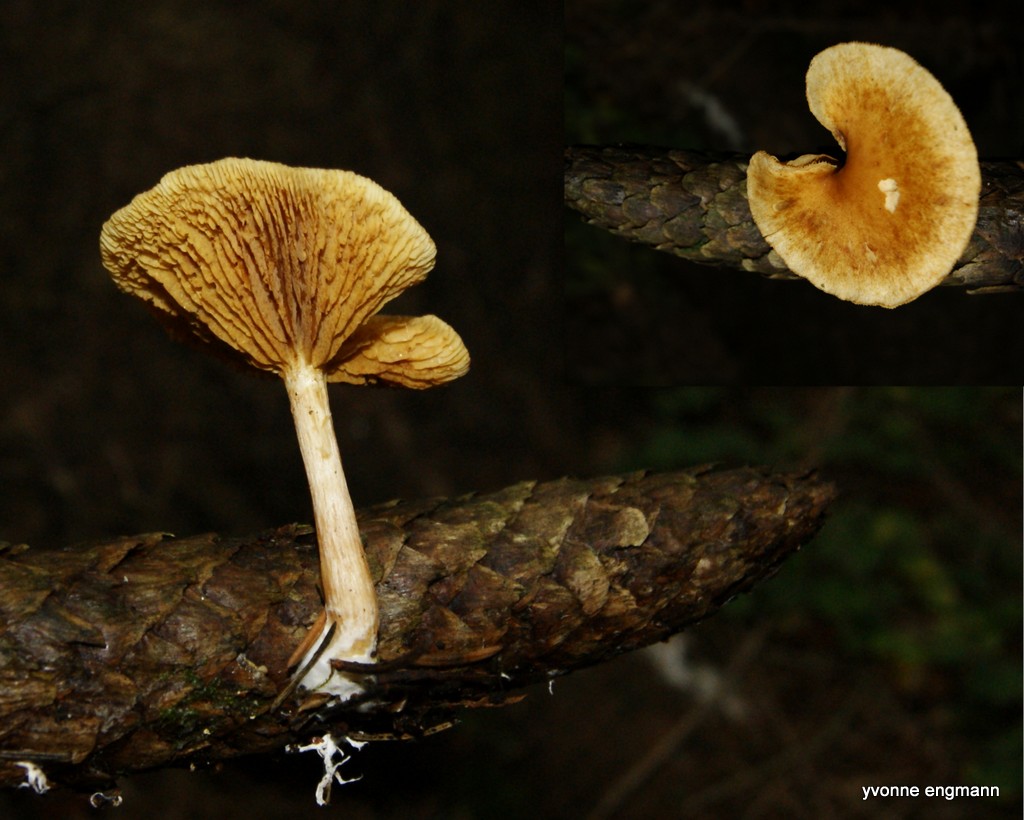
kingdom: Fungi
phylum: Basidiomycota
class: Agaricomycetes
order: Agaricales
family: Hymenogastraceae
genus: Gymnopilus
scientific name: Gymnopilus penetrans
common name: plettet flammehat
